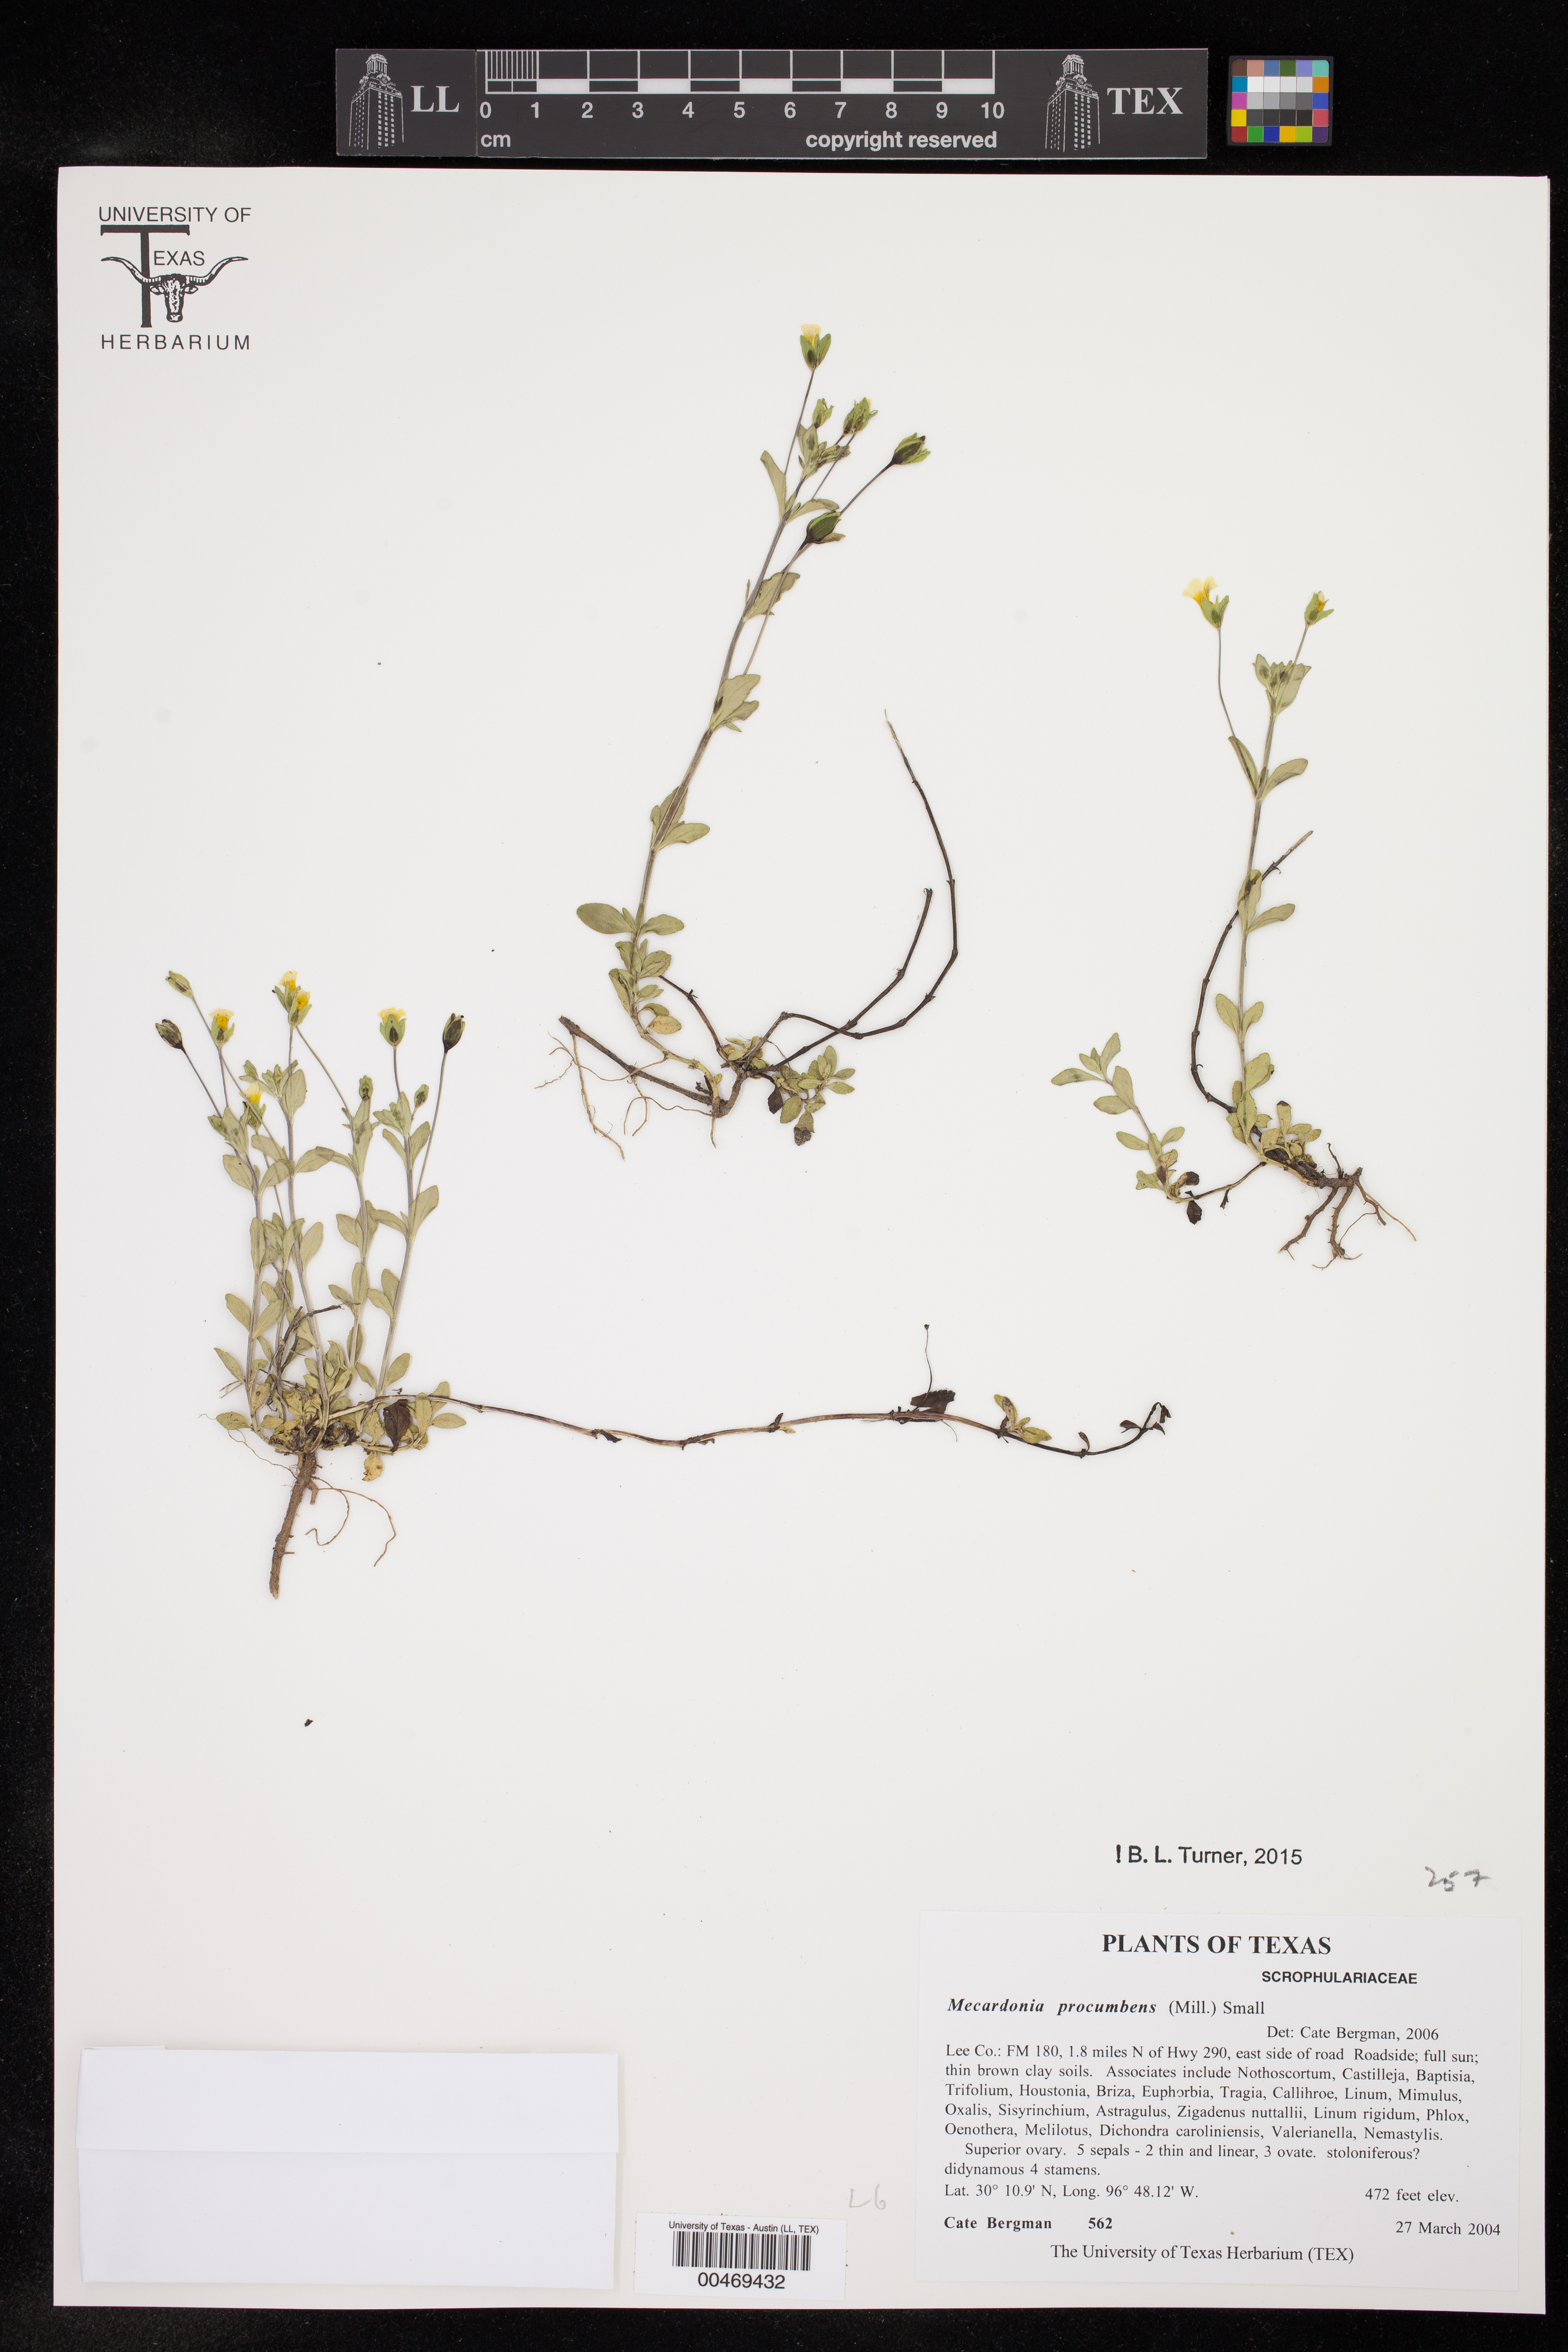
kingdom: Plantae
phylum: Tracheophyta
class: Magnoliopsida
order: Lamiales
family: Plantaginaceae
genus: Mecardonia
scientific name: Mecardonia procumbens
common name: Baby jump-up
